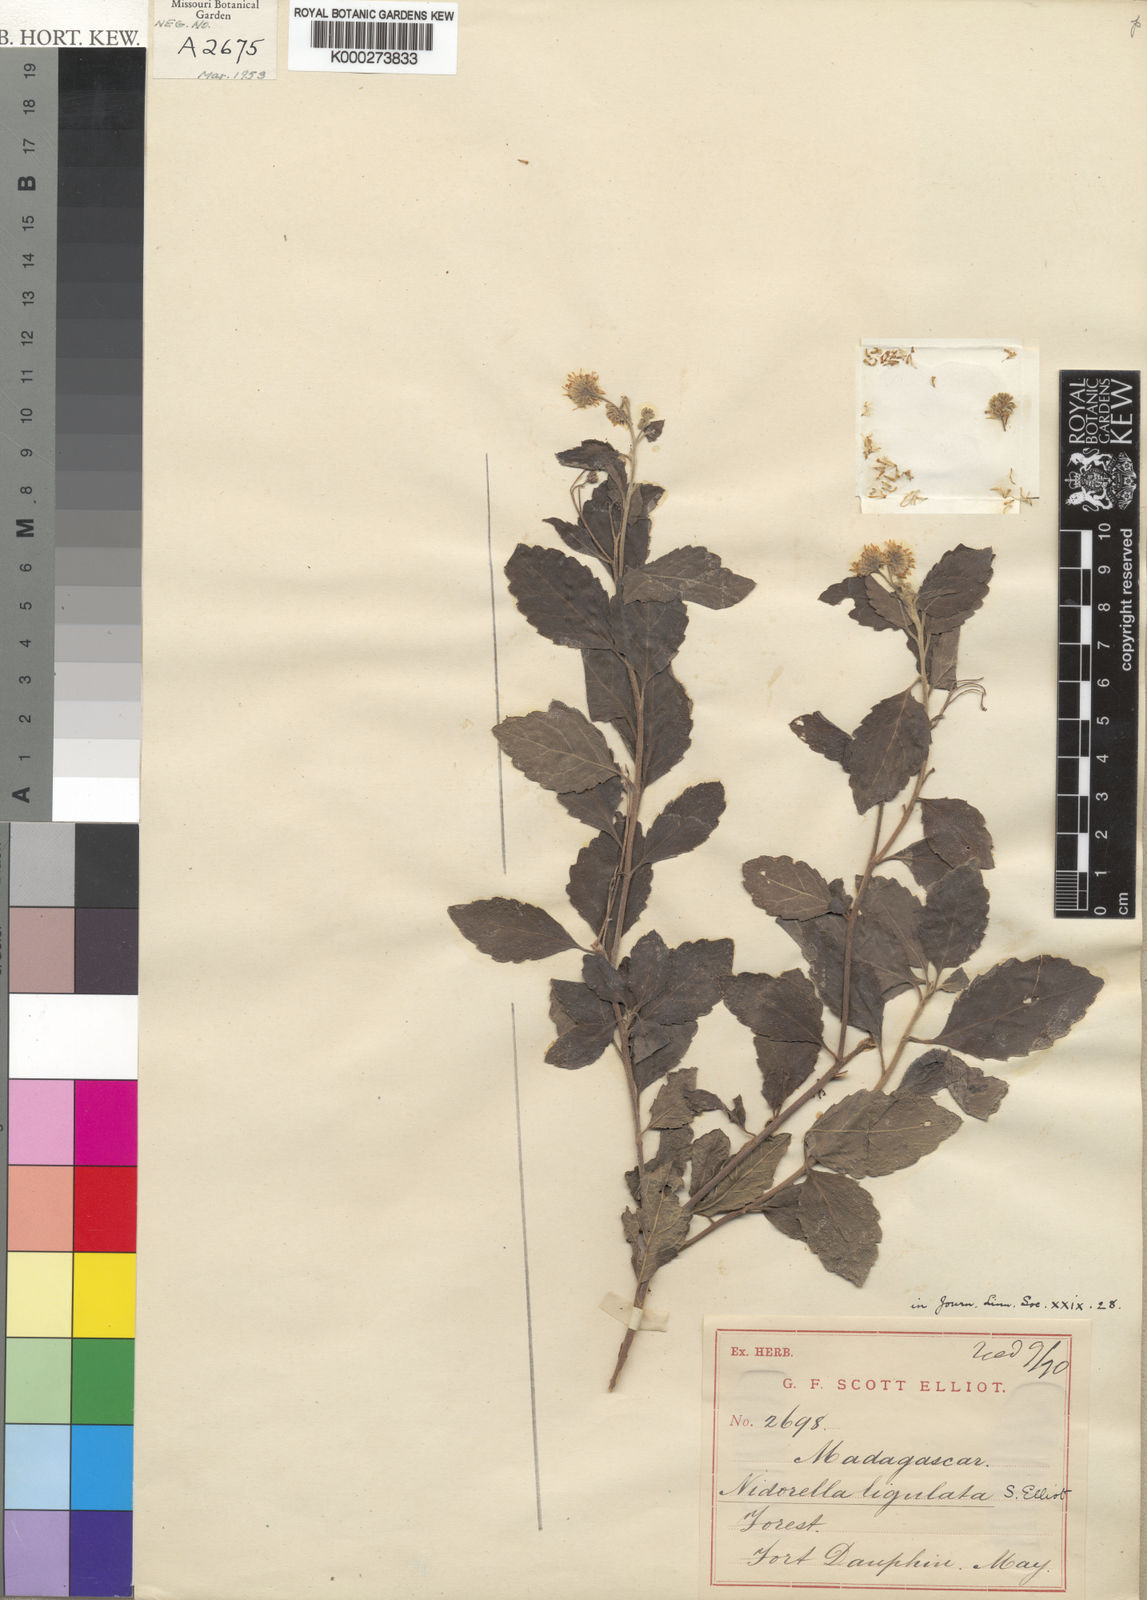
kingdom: Plantae
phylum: Tracheophyta
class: Magnoliopsida
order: Asterales
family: Asteraceae
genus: Psiadia
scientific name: Psiadia agatheoides
